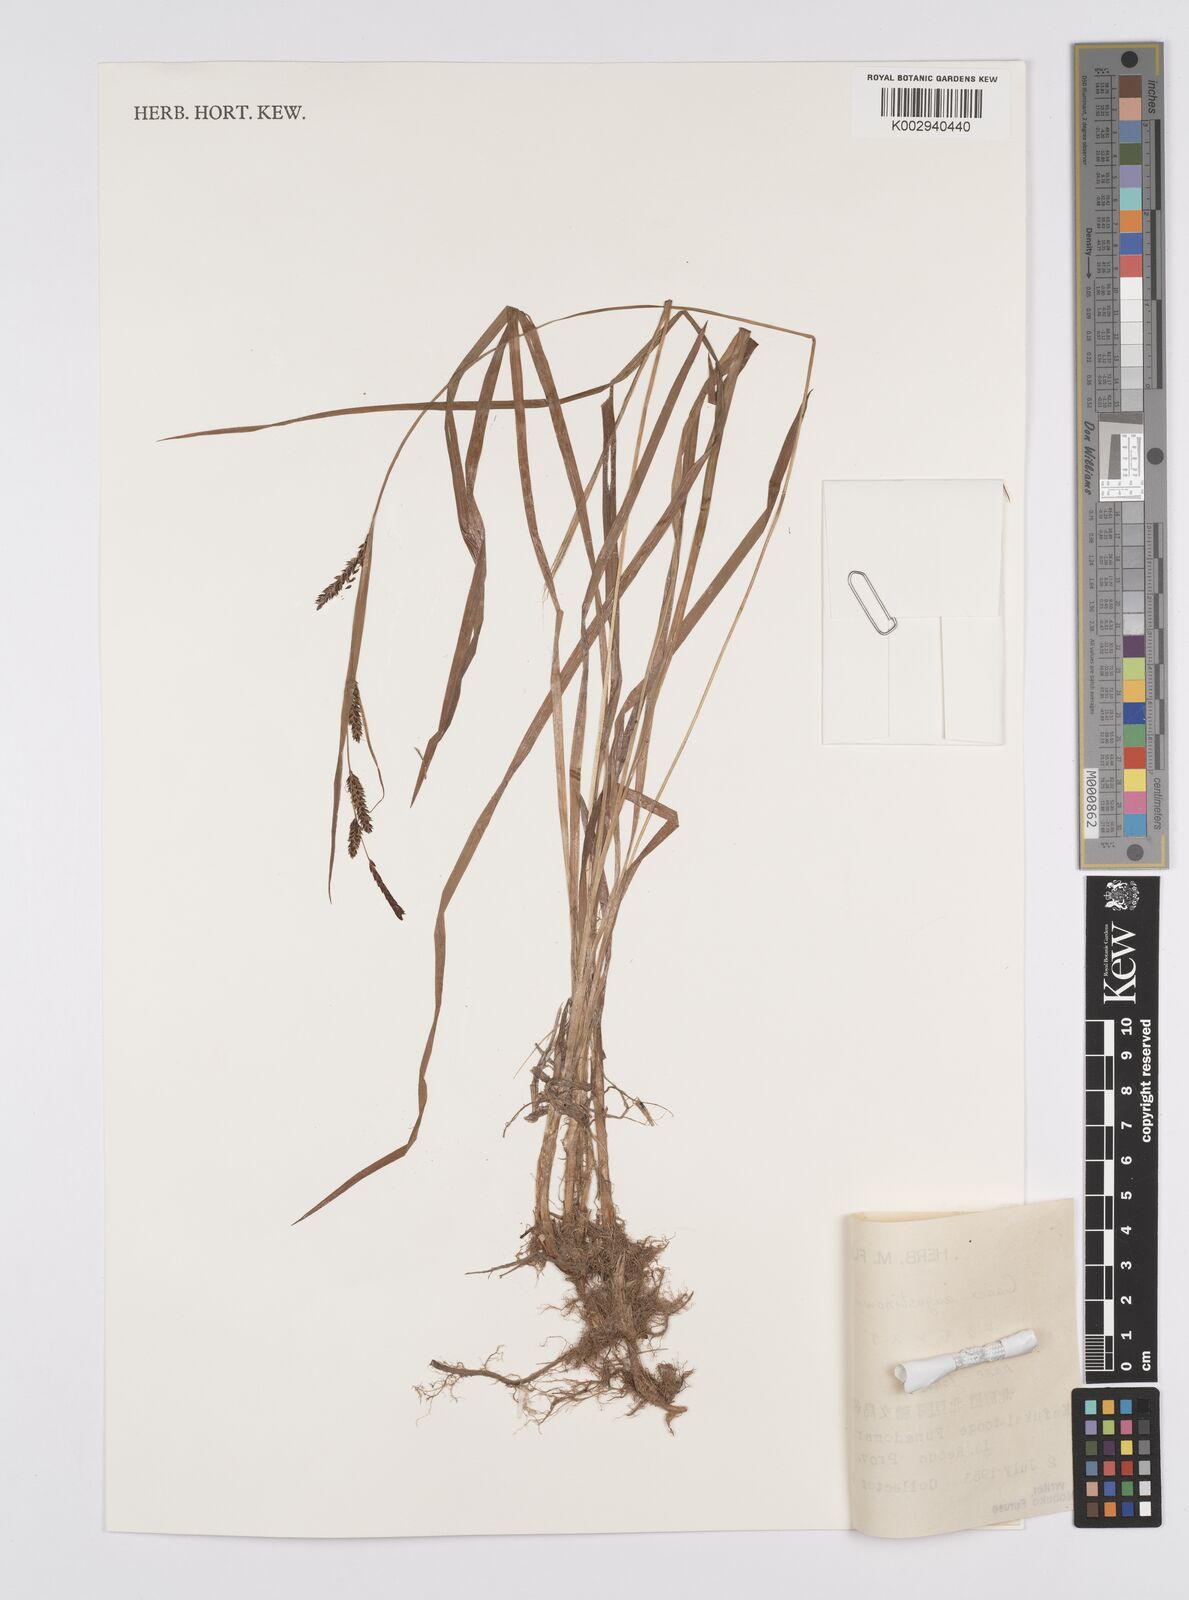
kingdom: Plantae
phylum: Tracheophyta
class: Liliopsida
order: Poales
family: Cyperaceae
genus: Carex
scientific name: Carex augustinowiczii
